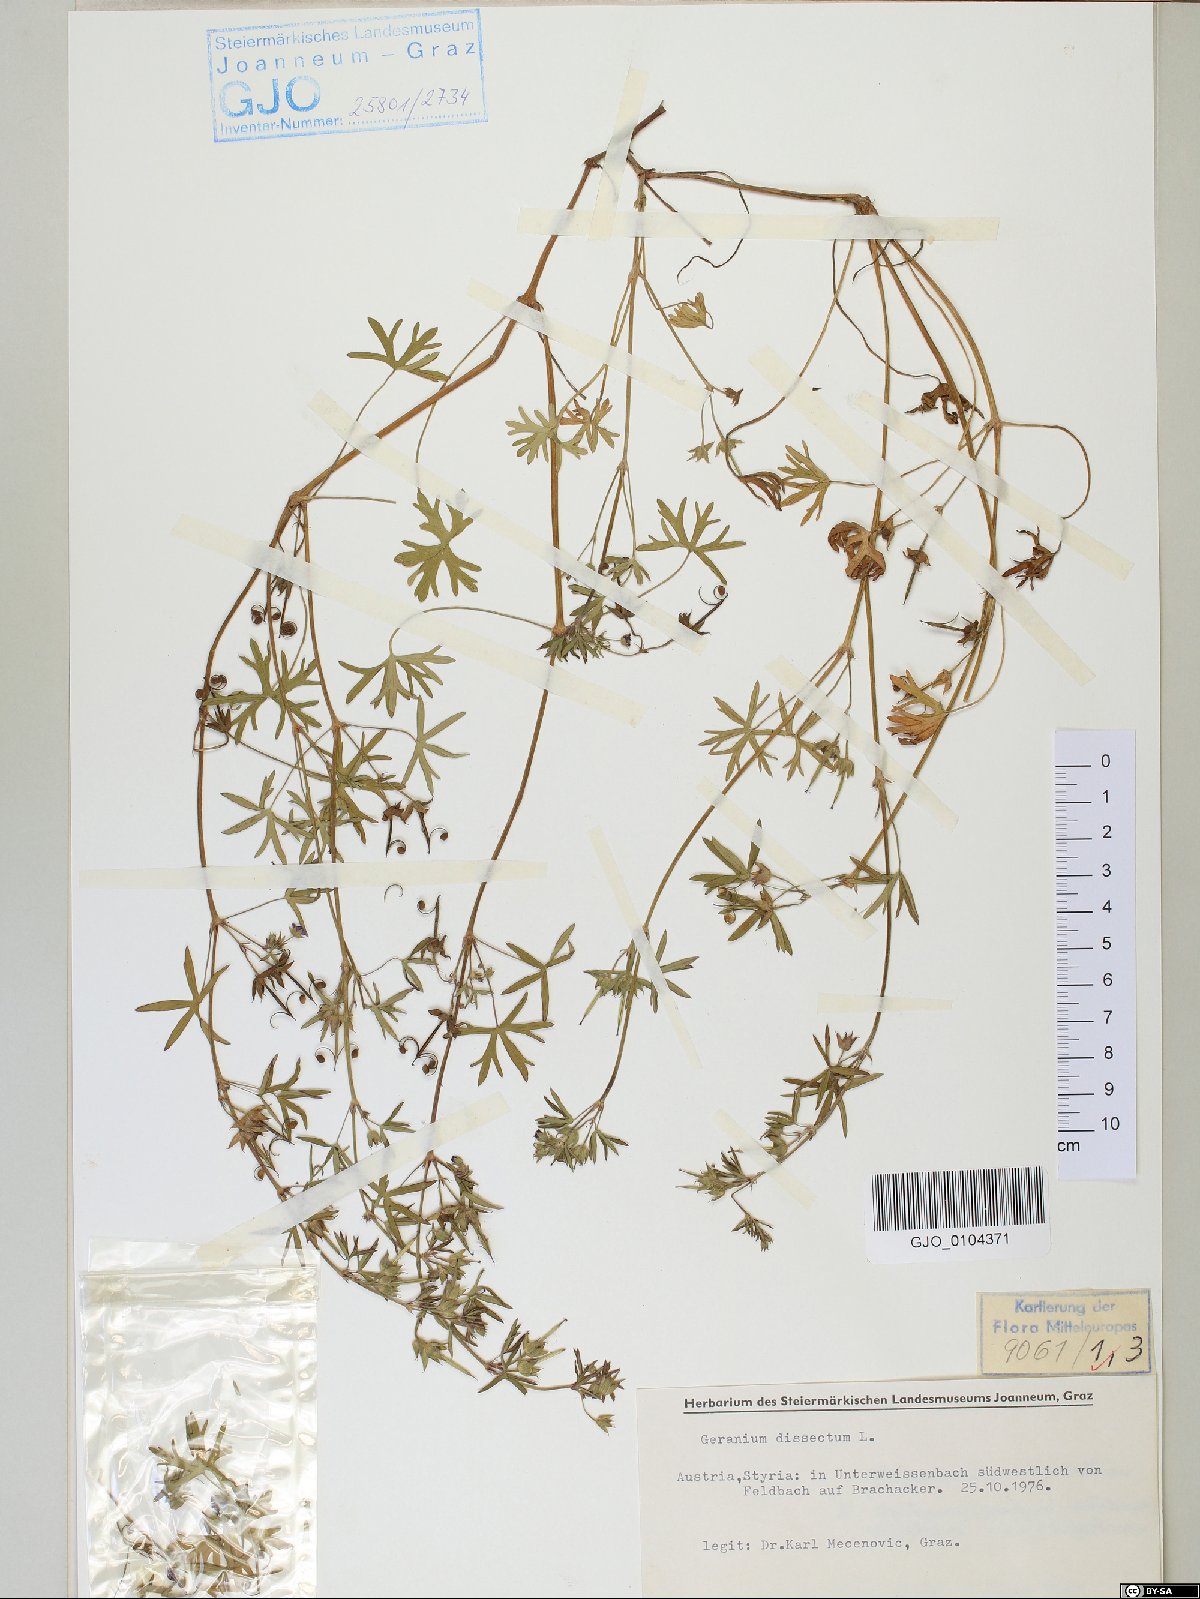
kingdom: Plantae
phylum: Tracheophyta
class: Magnoliopsida
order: Geraniales
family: Geraniaceae
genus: Geranium
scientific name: Geranium dissectum
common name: Cut-leaved crane's-bill
